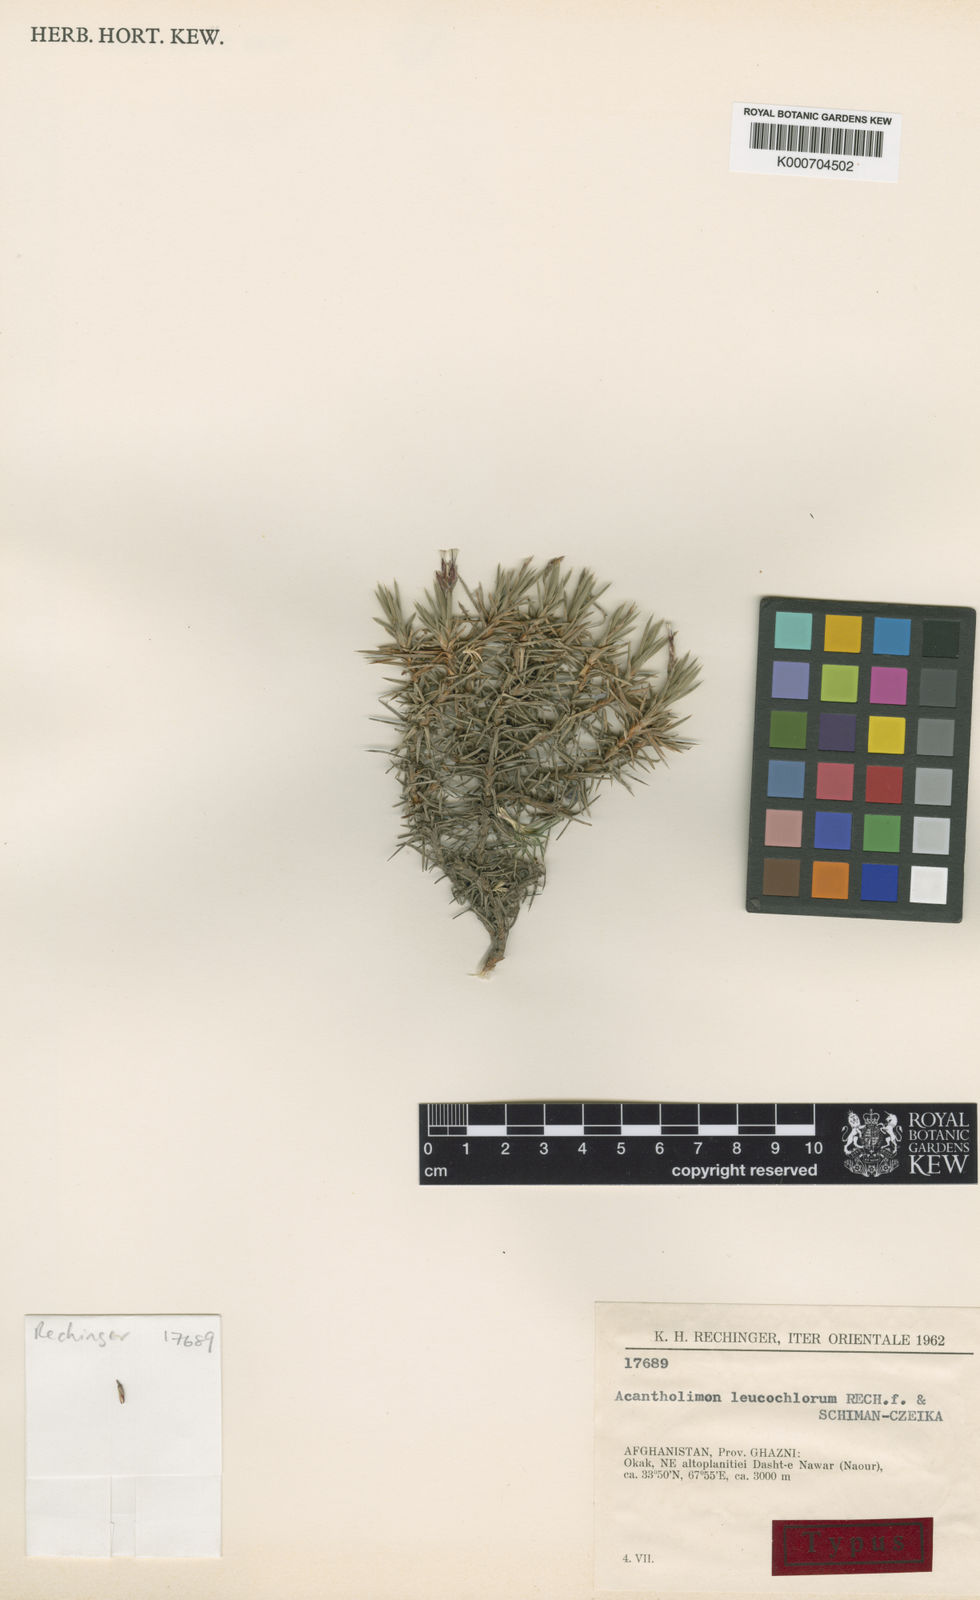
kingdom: Plantae
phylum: Tracheophyta
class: Magnoliopsida
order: Caryophyllales
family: Plumbaginaceae
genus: Acantholimon
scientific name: Acantholimon leucochlorum
